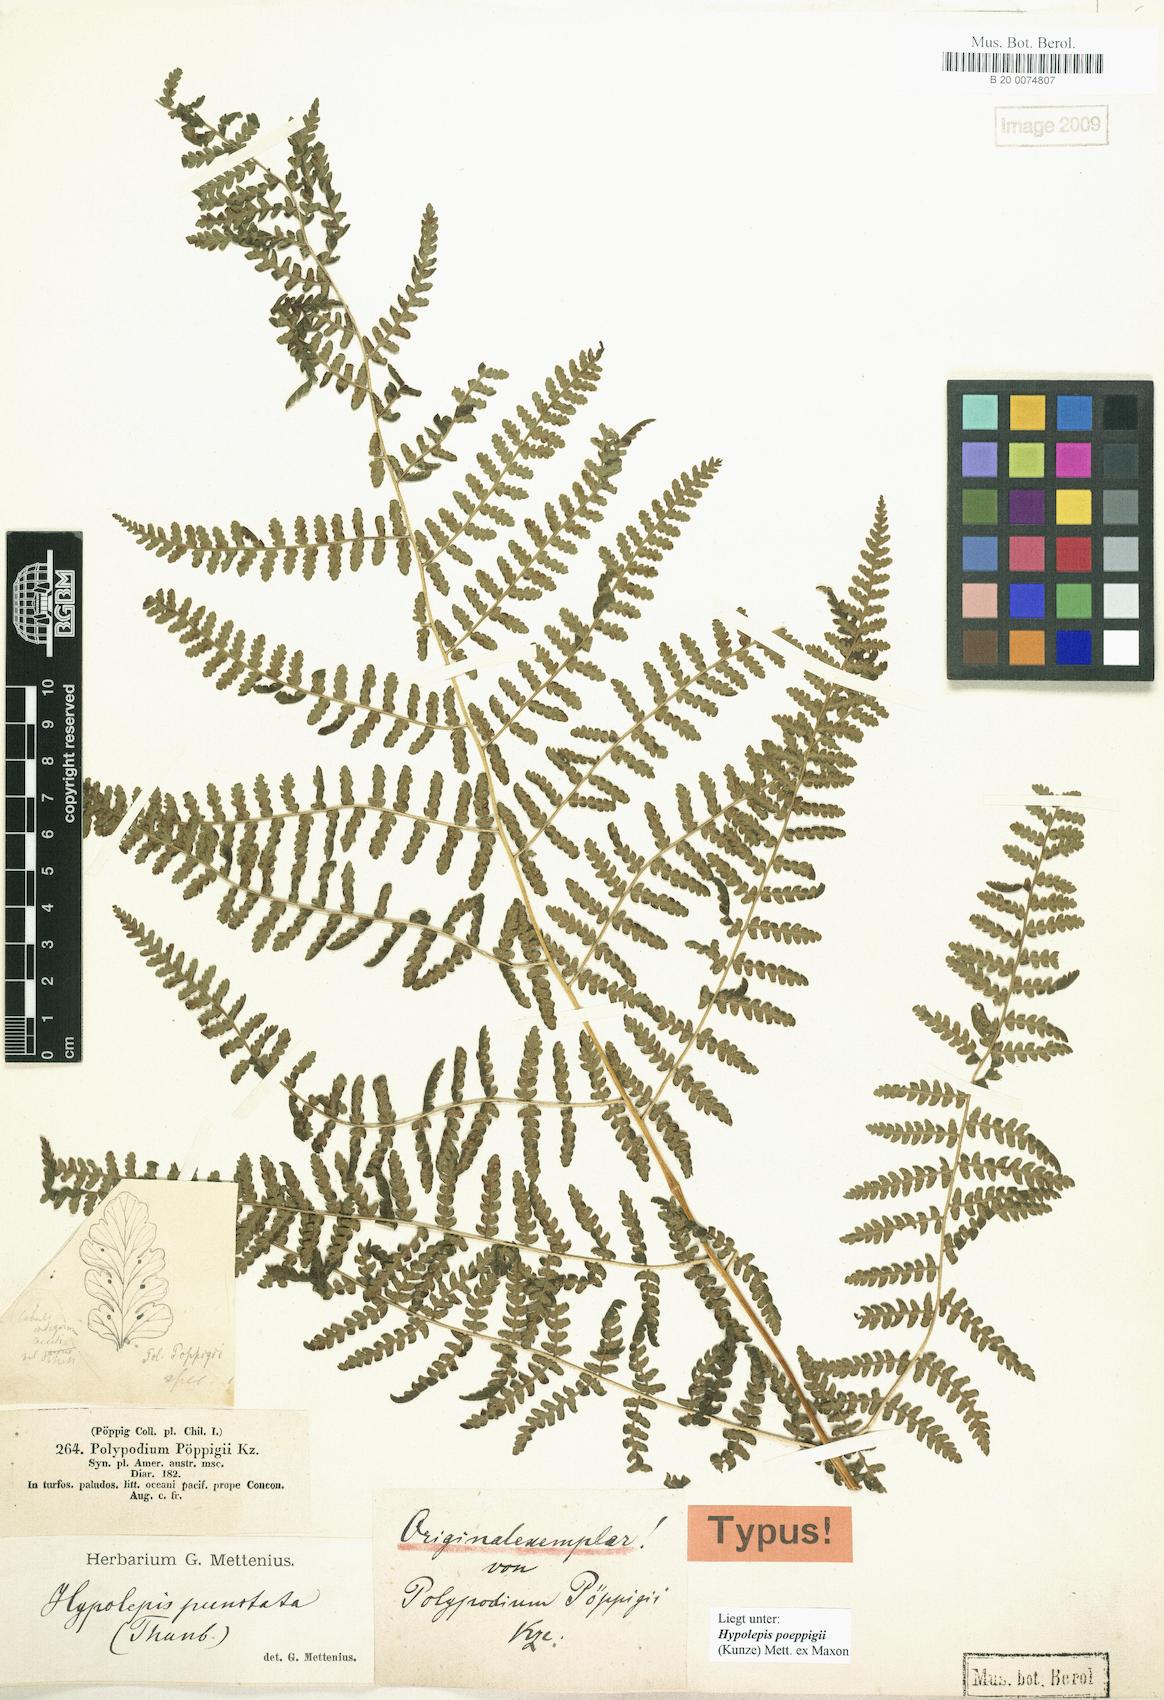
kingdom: Plantae
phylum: Tracheophyta
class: Polypodiopsida
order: Polypodiales
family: Dennstaedtiaceae
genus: Hypolepis
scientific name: Hypolepis poeppigii
